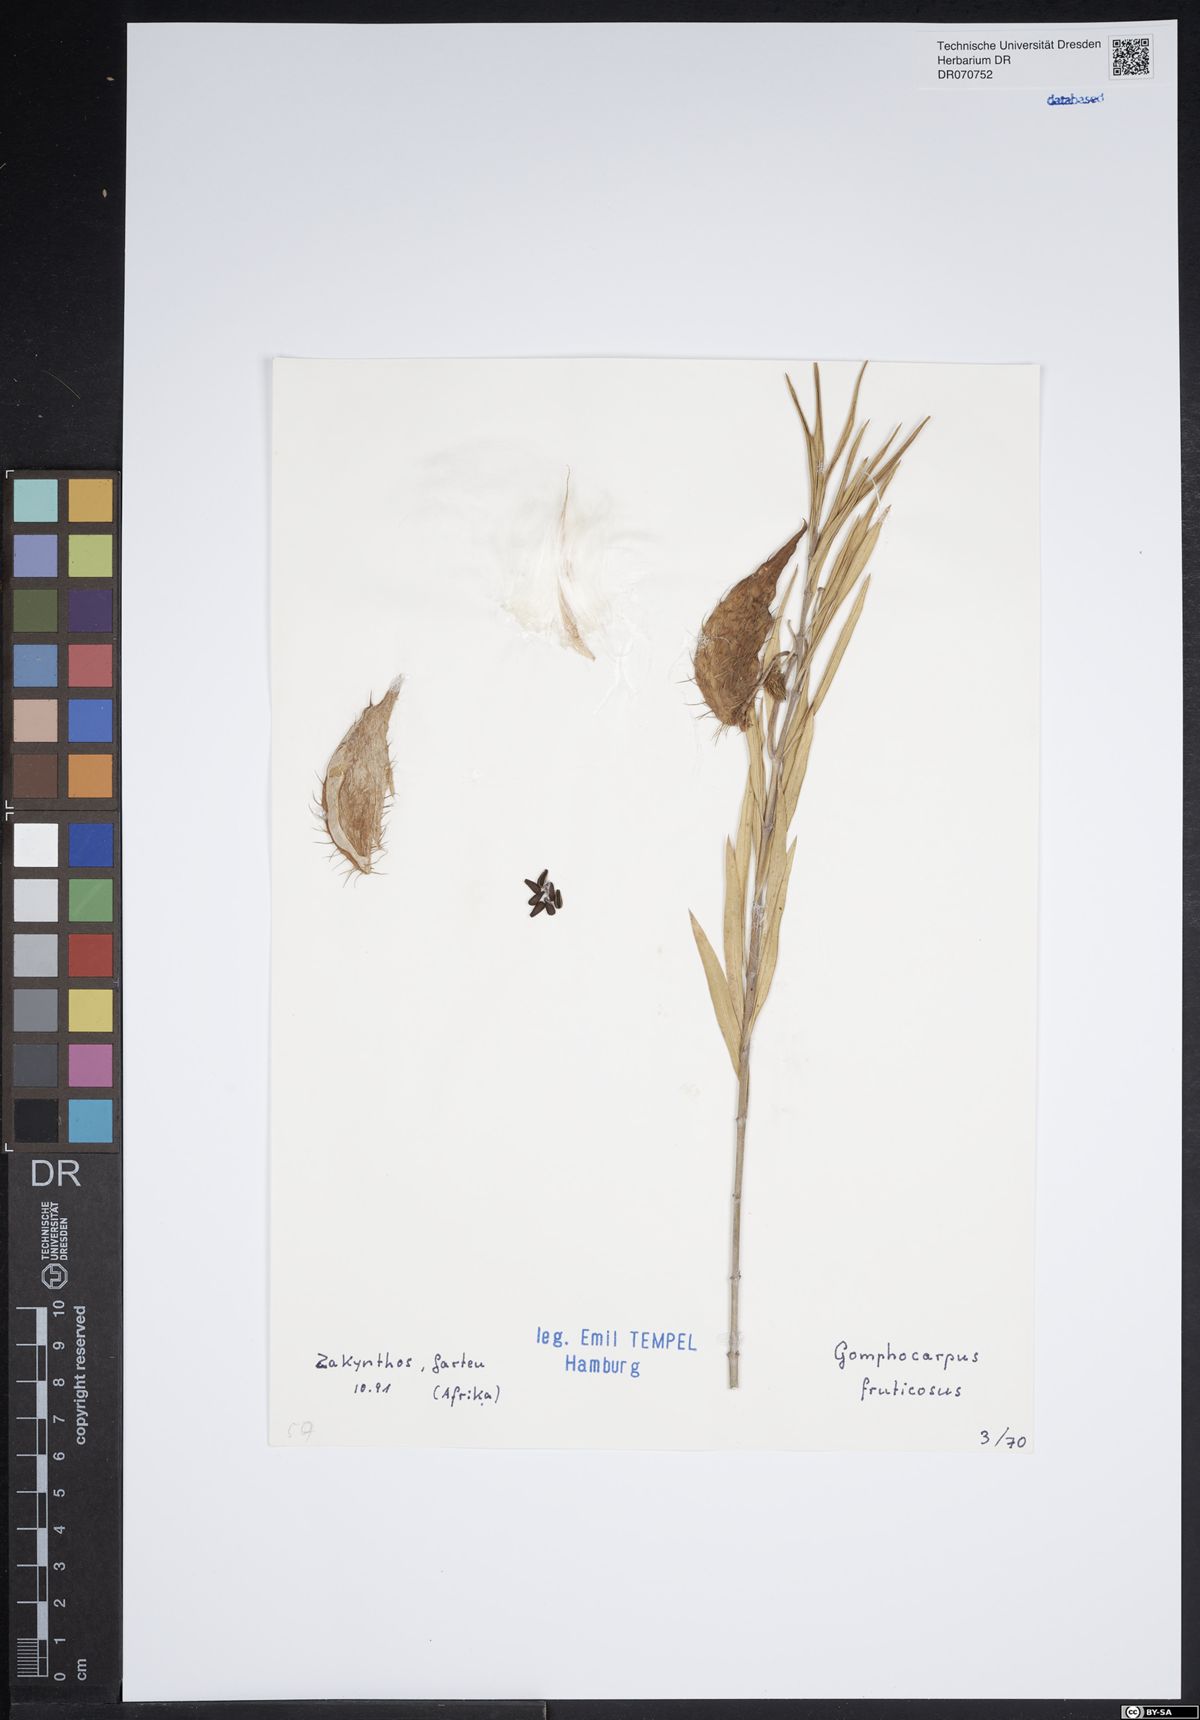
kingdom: Plantae
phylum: Tracheophyta
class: Magnoliopsida
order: Gentianales
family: Apocynaceae
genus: Gomphocarpus
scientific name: Gomphocarpus fruticosus
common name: Milkweed
